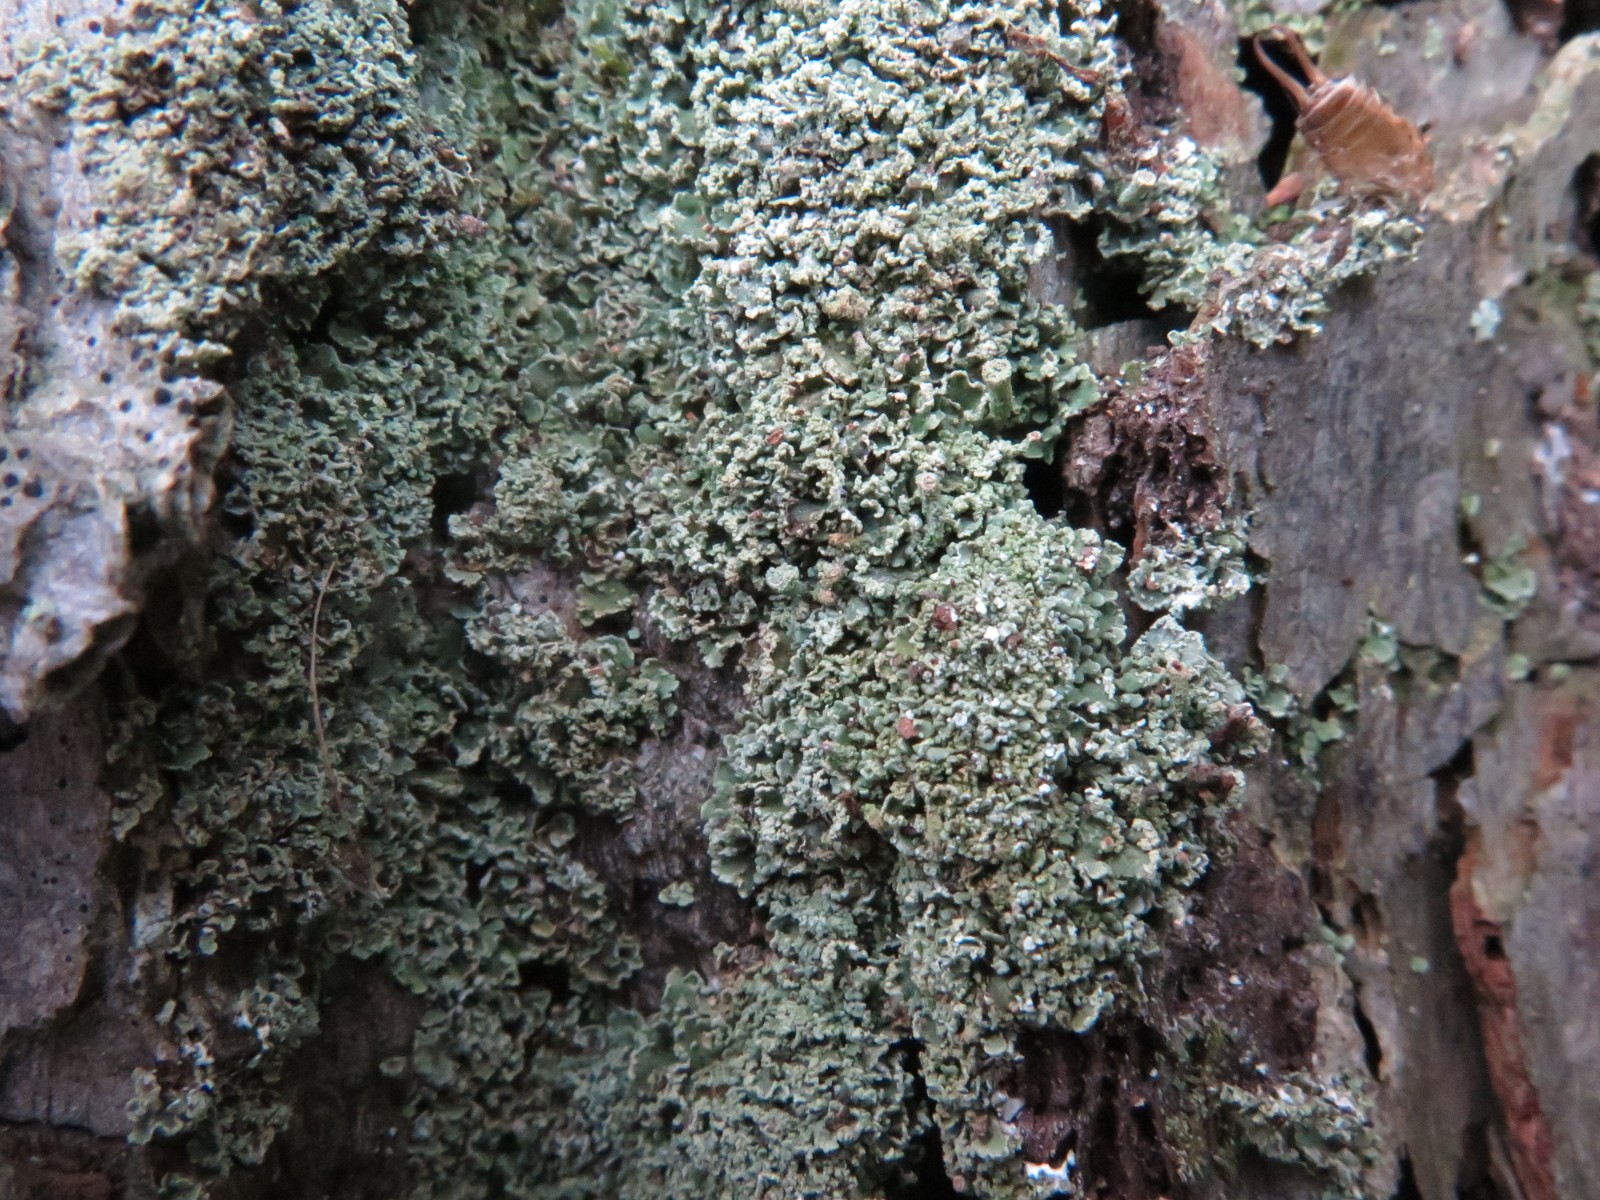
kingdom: Fungi
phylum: Ascomycota
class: Lecanoromycetes
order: Lecanorales
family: Cladoniaceae
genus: Cladonia
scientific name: Cladonia
